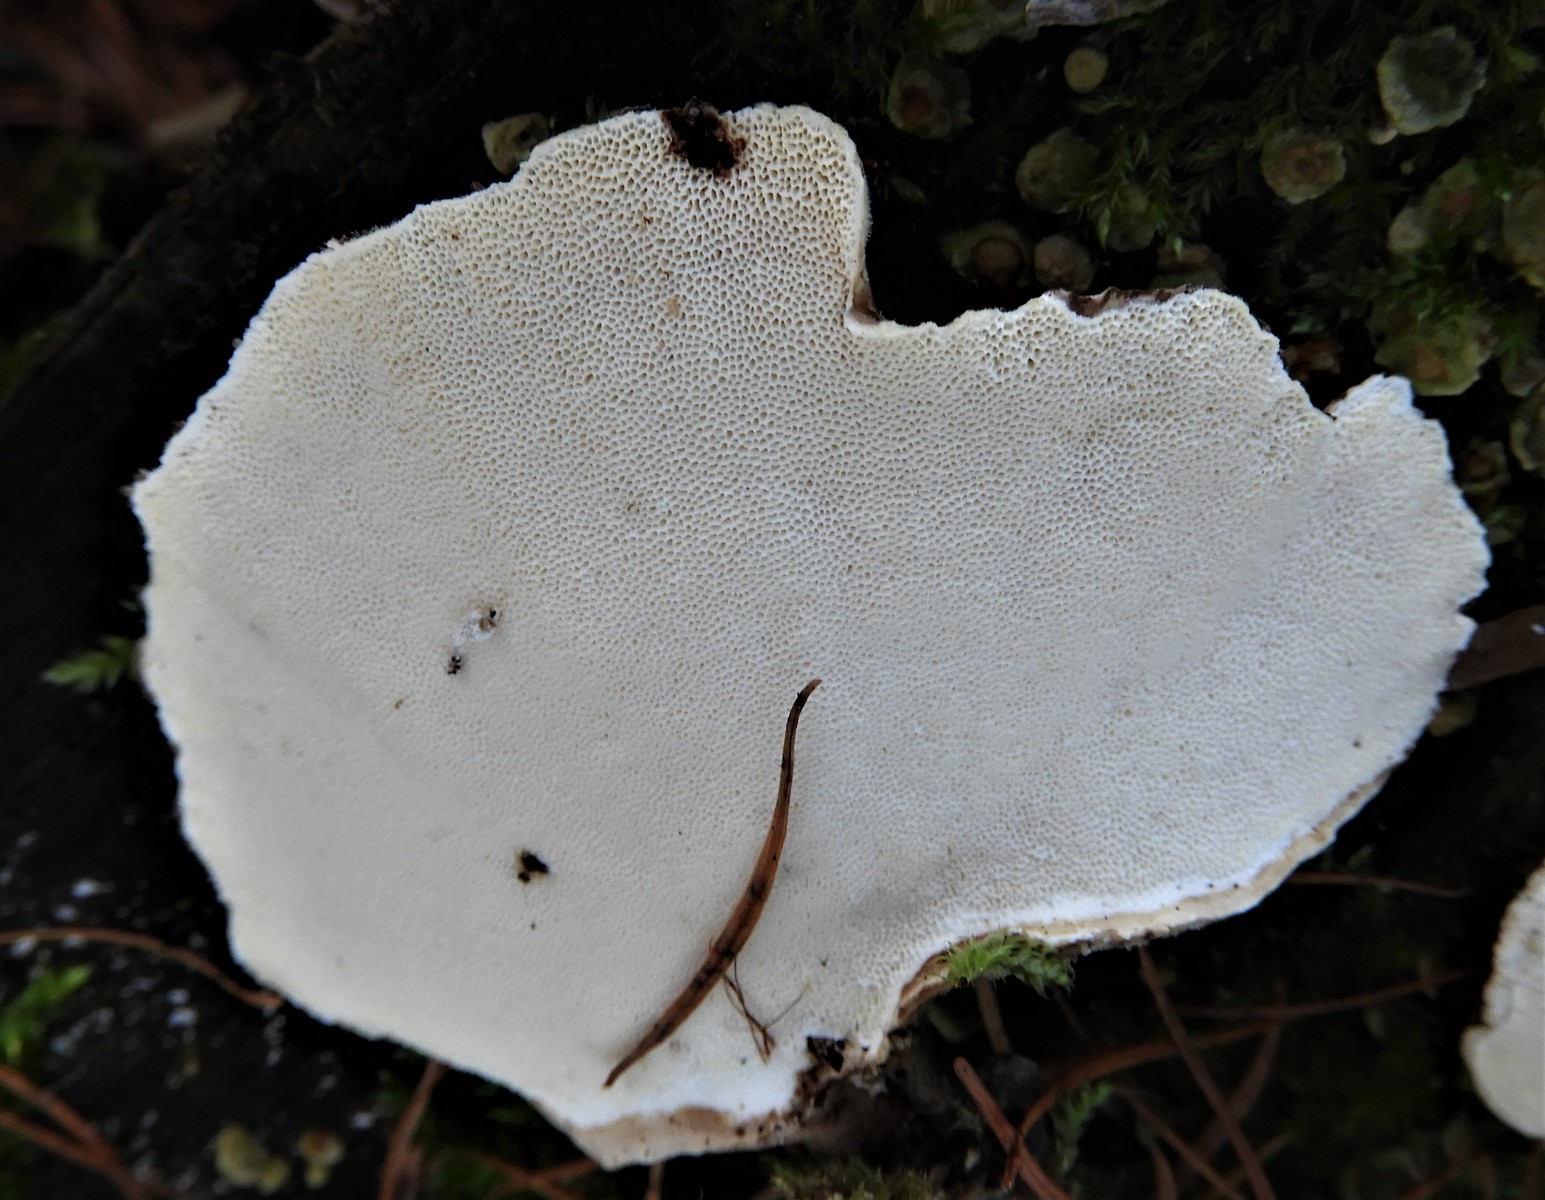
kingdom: Fungi
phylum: Basidiomycota
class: Agaricomycetes
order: Polyporales
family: Polyporaceae
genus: Trametes
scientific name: Trametes versicolor
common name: broget læderporesvamp
